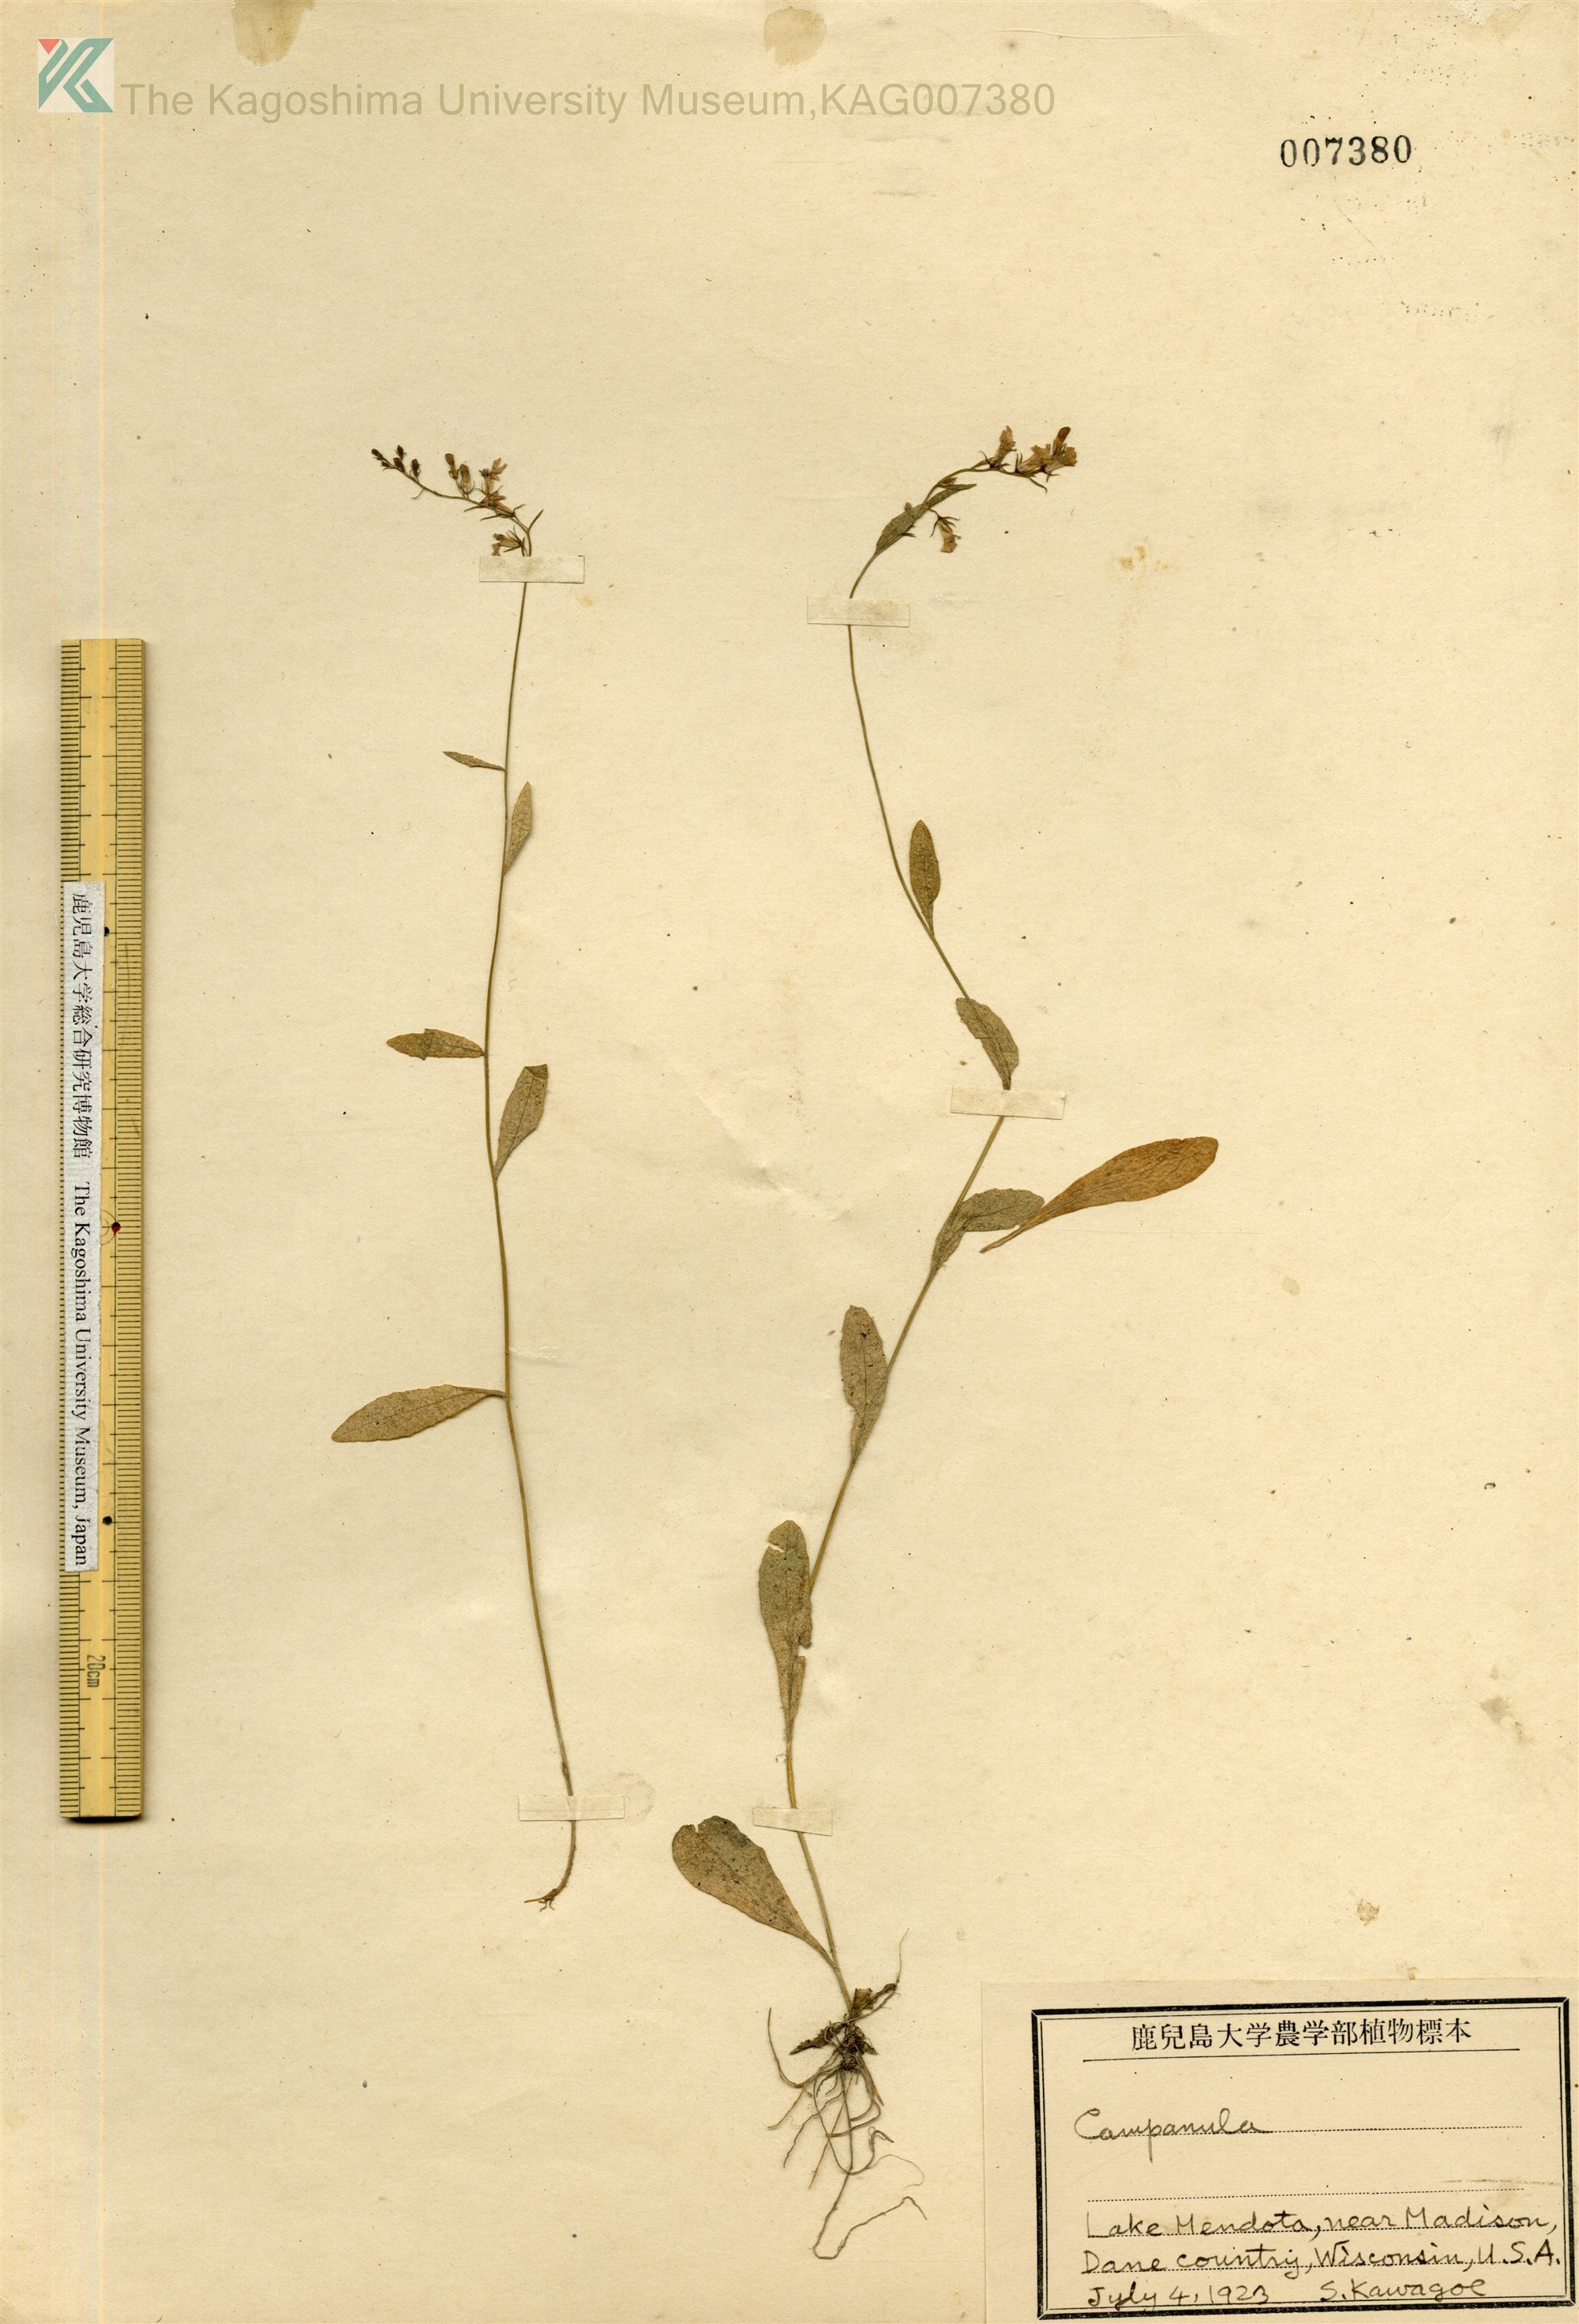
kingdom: Plantae
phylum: Tracheophyta
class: Magnoliopsida
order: Asterales
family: Campanulaceae
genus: Campanula
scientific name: Campanula
